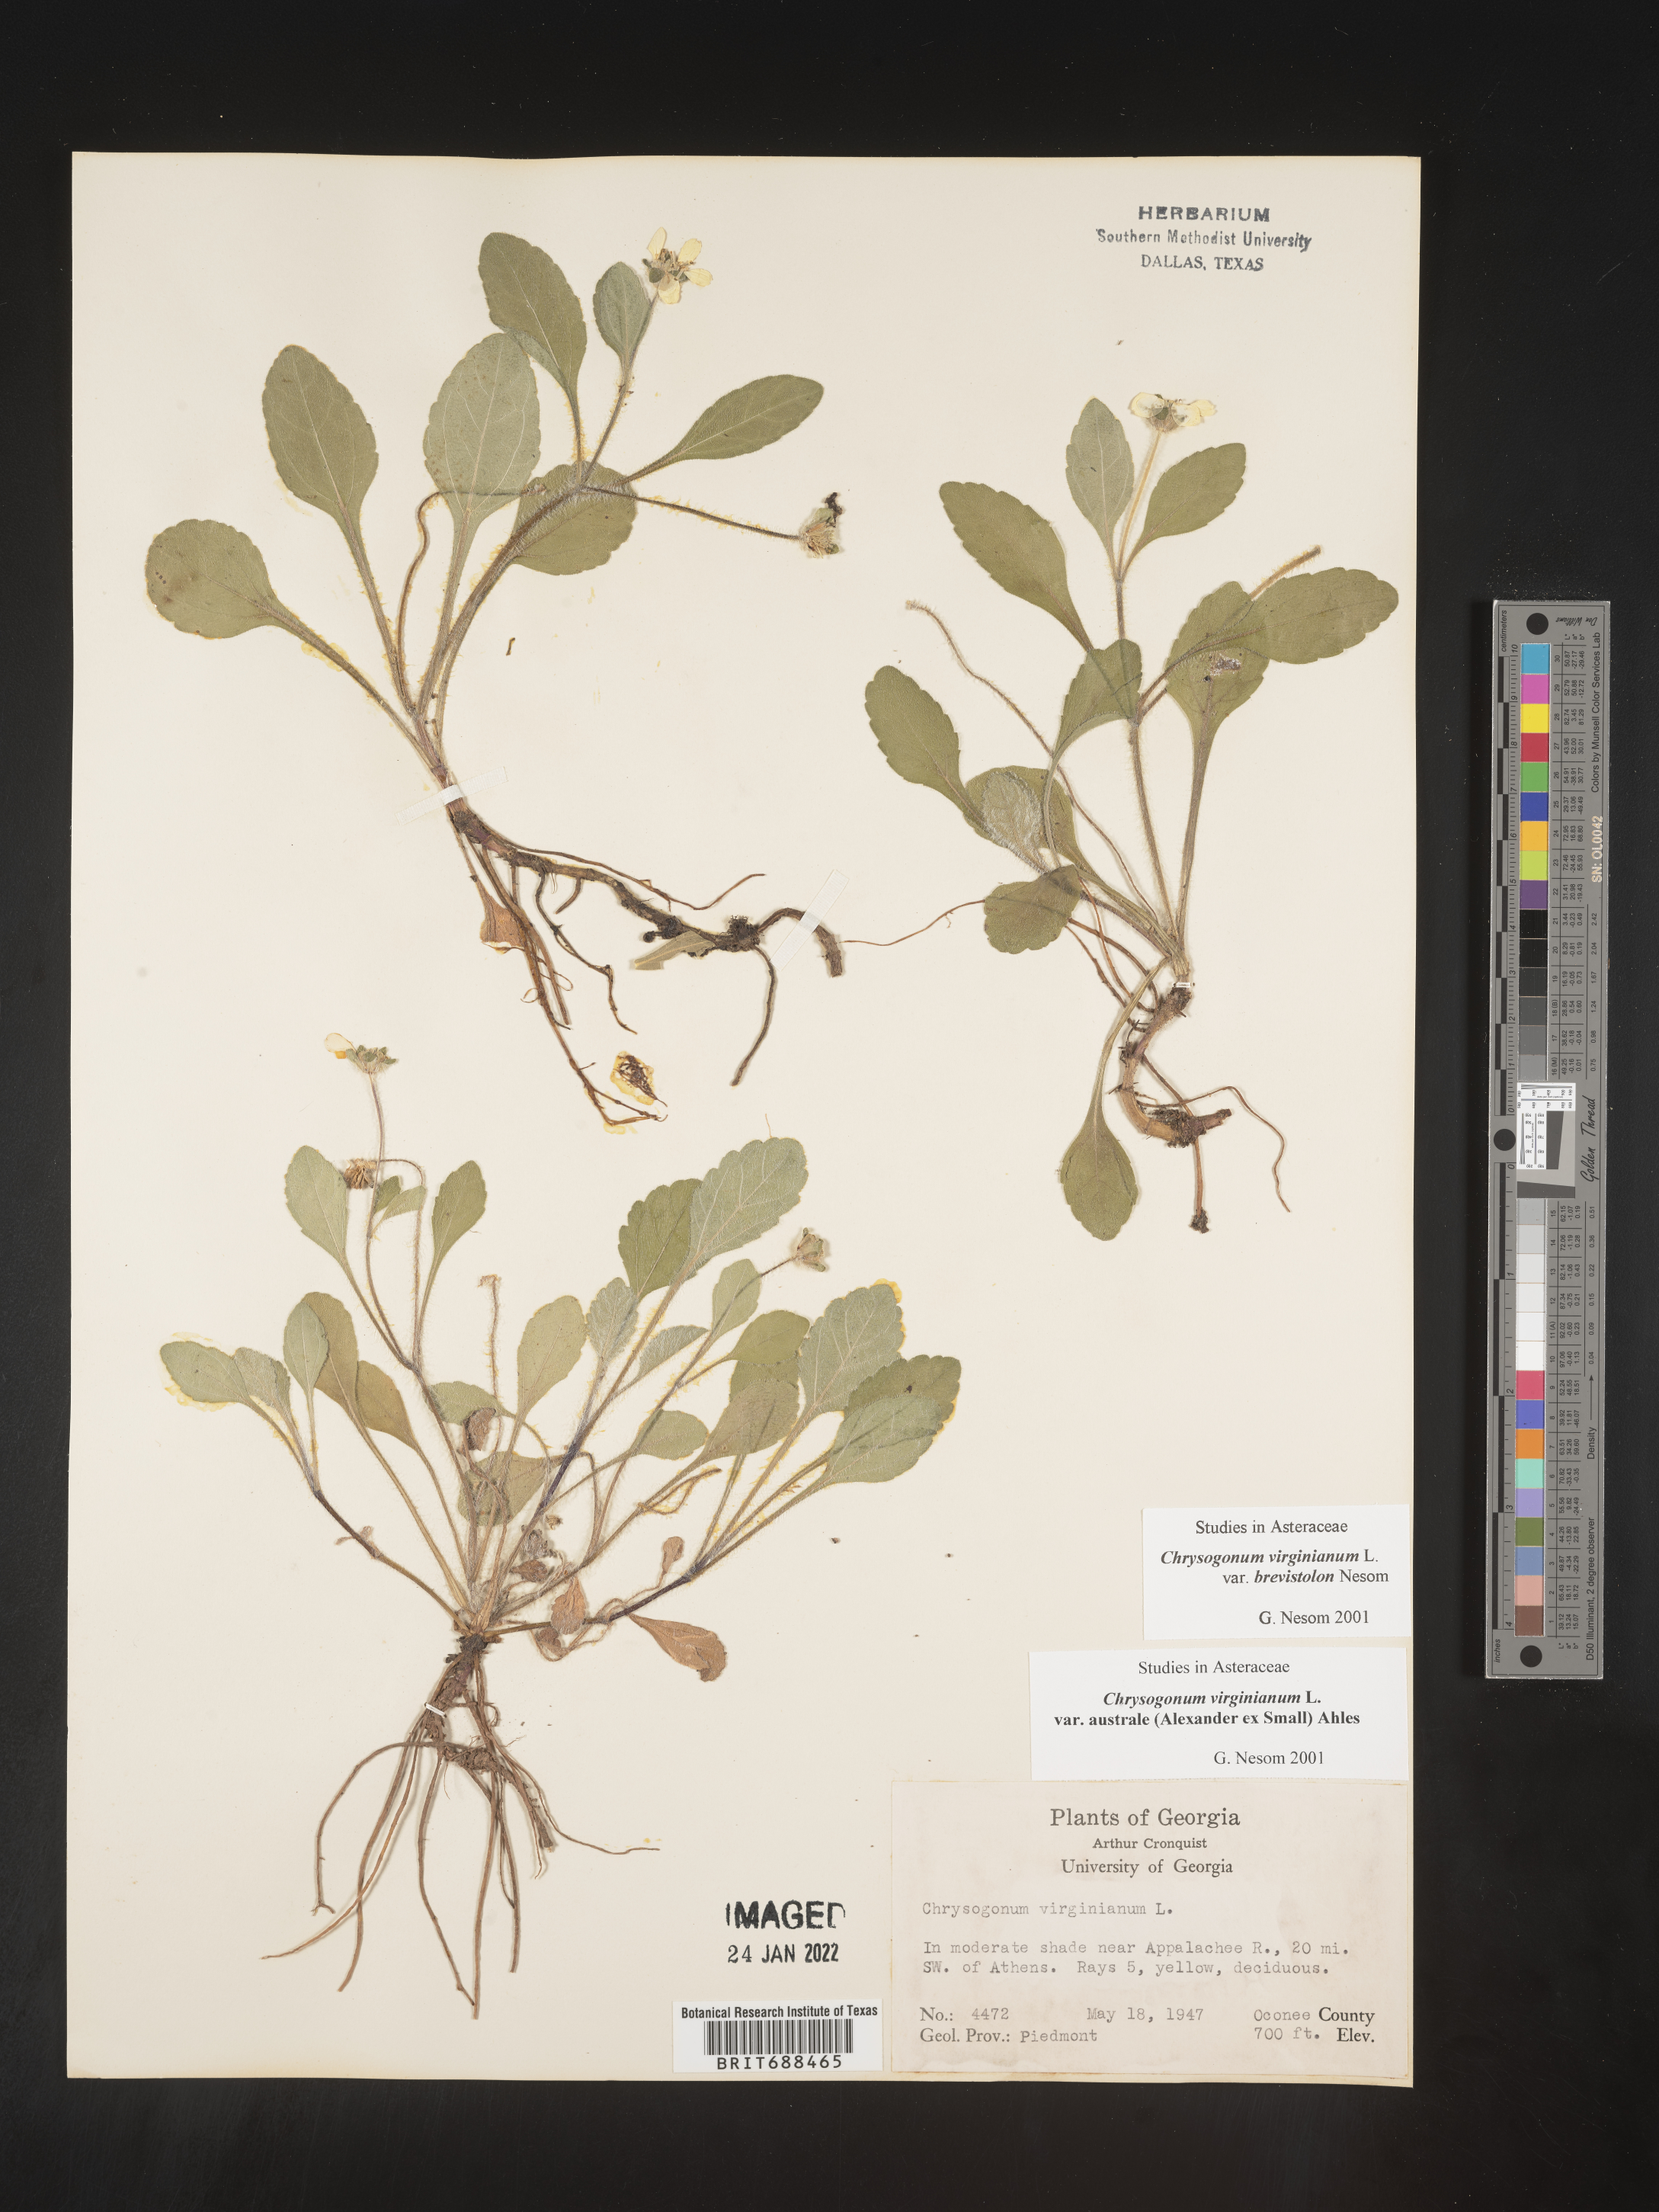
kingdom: Plantae
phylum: Tracheophyta
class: Magnoliopsida
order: Asterales
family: Asteraceae
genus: Chrysogonum
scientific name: Chrysogonum virginianum
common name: Golden-knee
